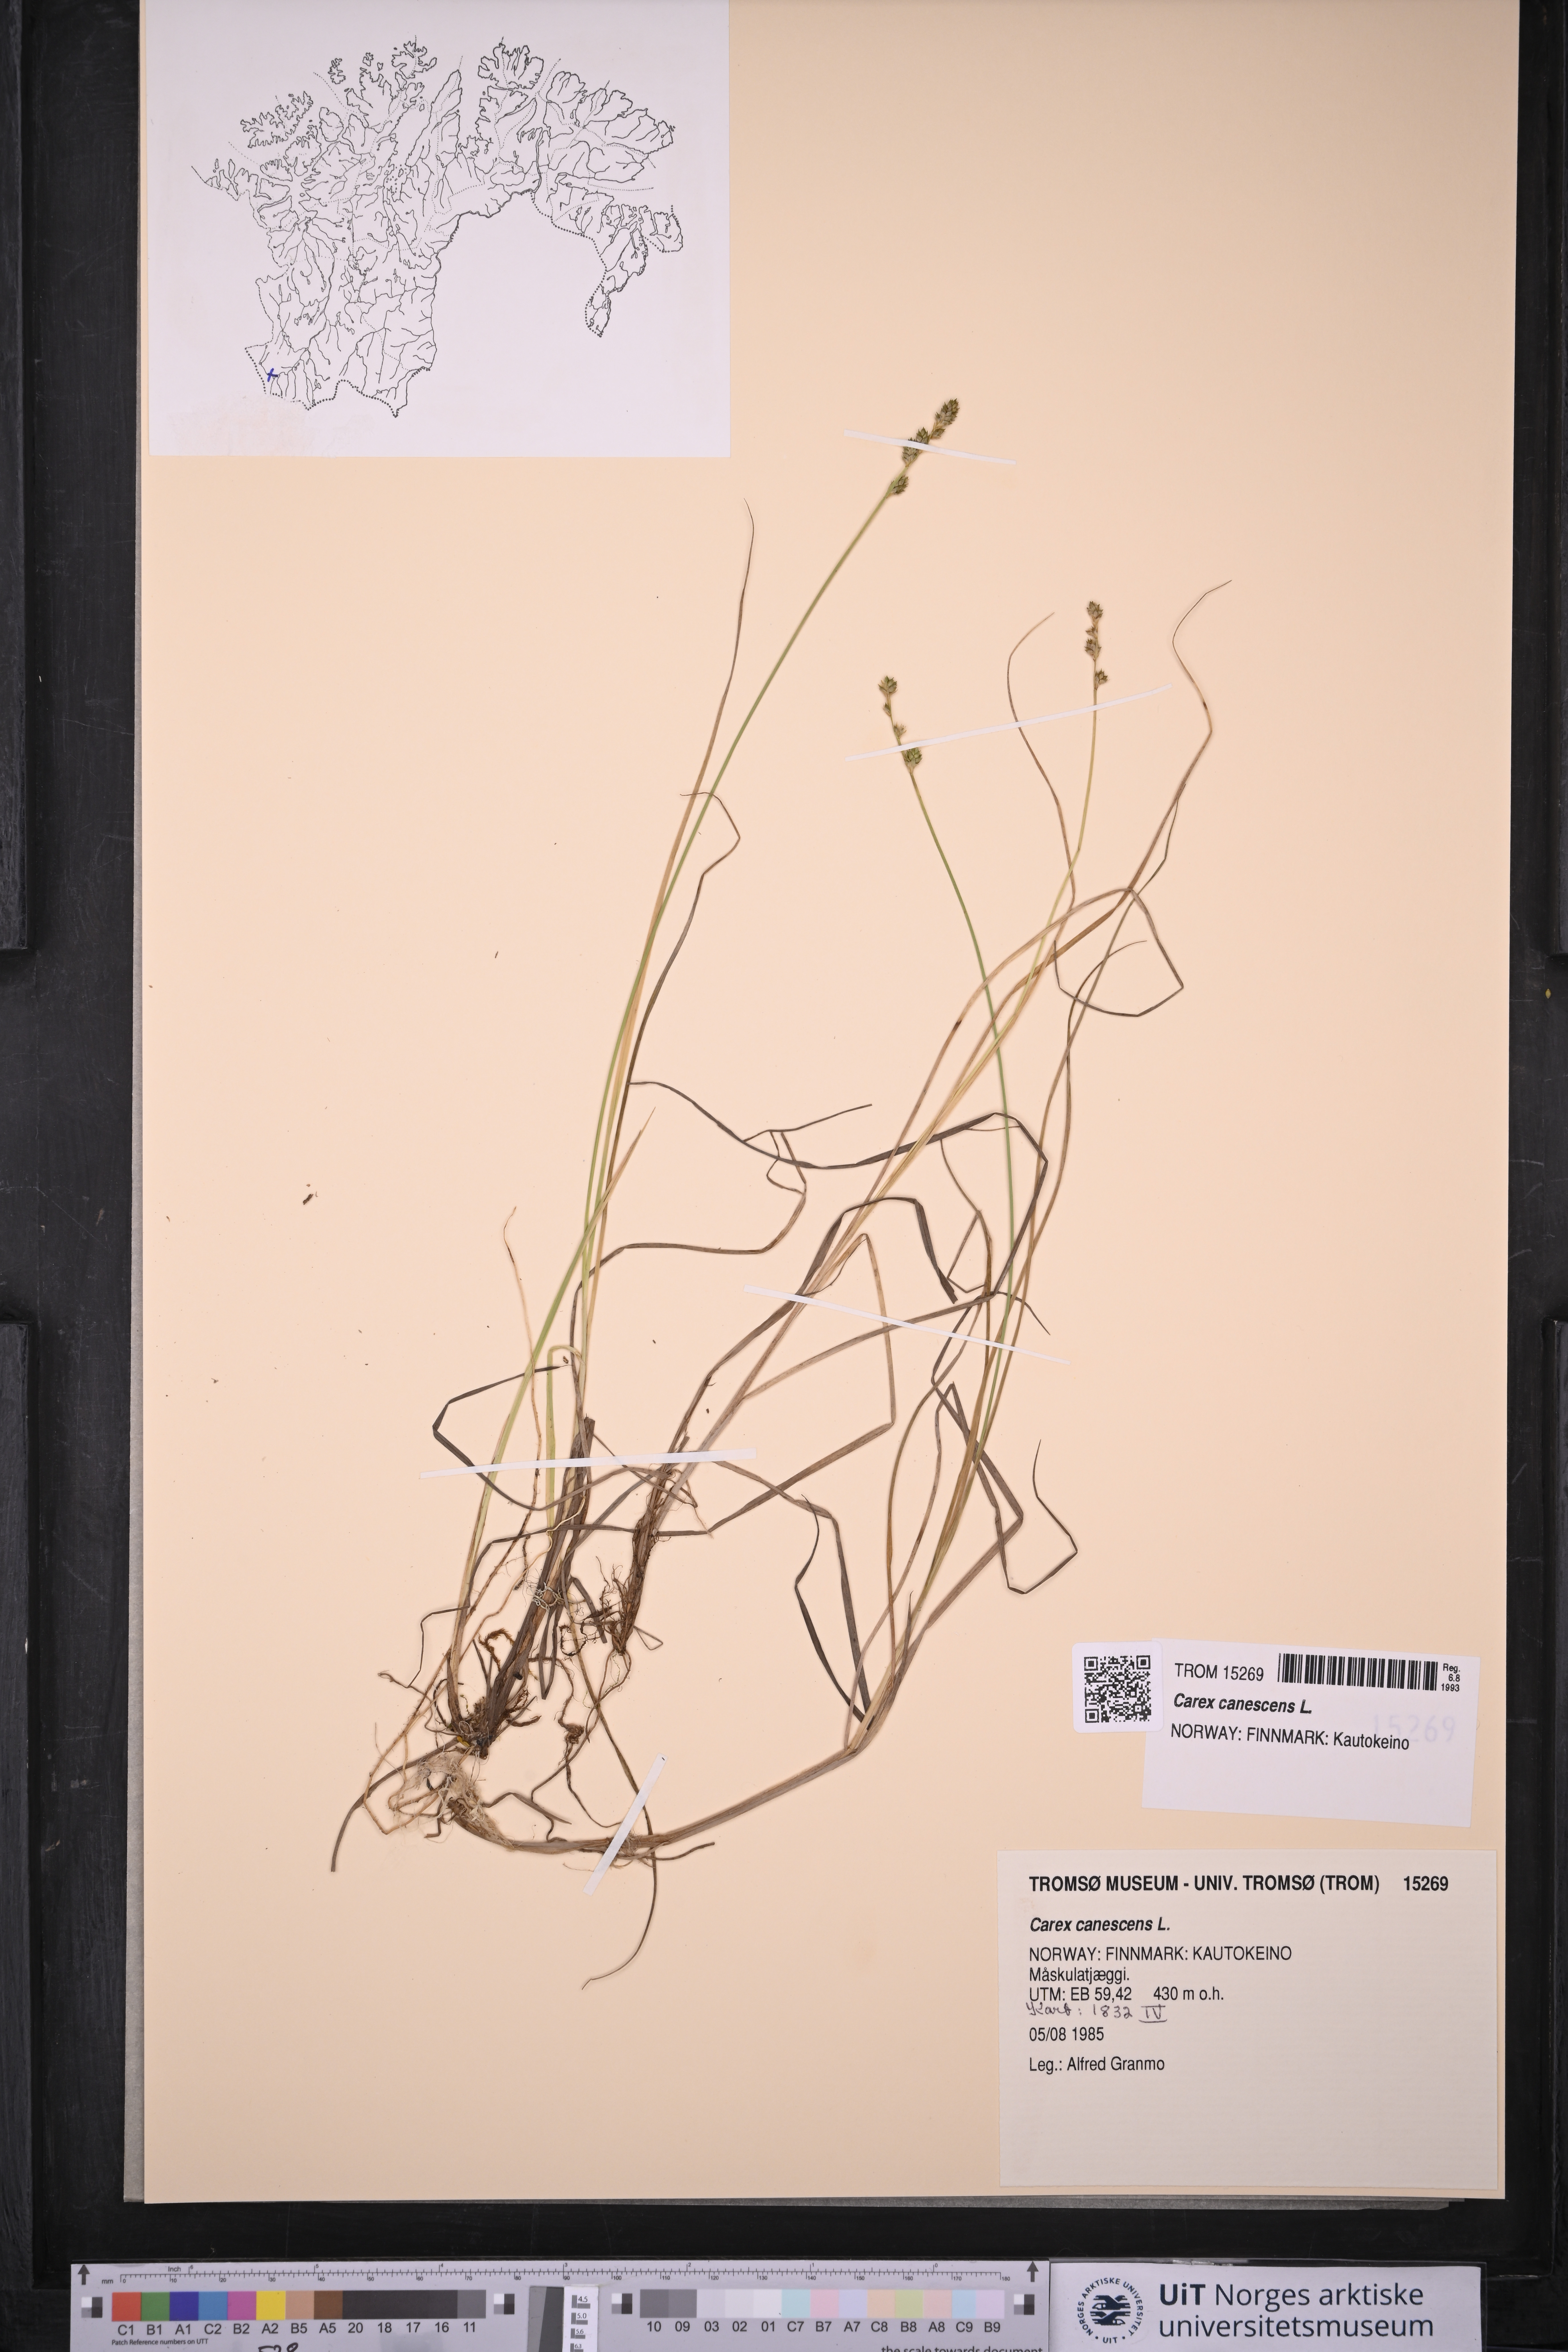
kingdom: Plantae
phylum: Tracheophyta
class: Liliopsida
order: Poales
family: Cyperaceae
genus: Carex
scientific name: Carex canescens
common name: White sedge
